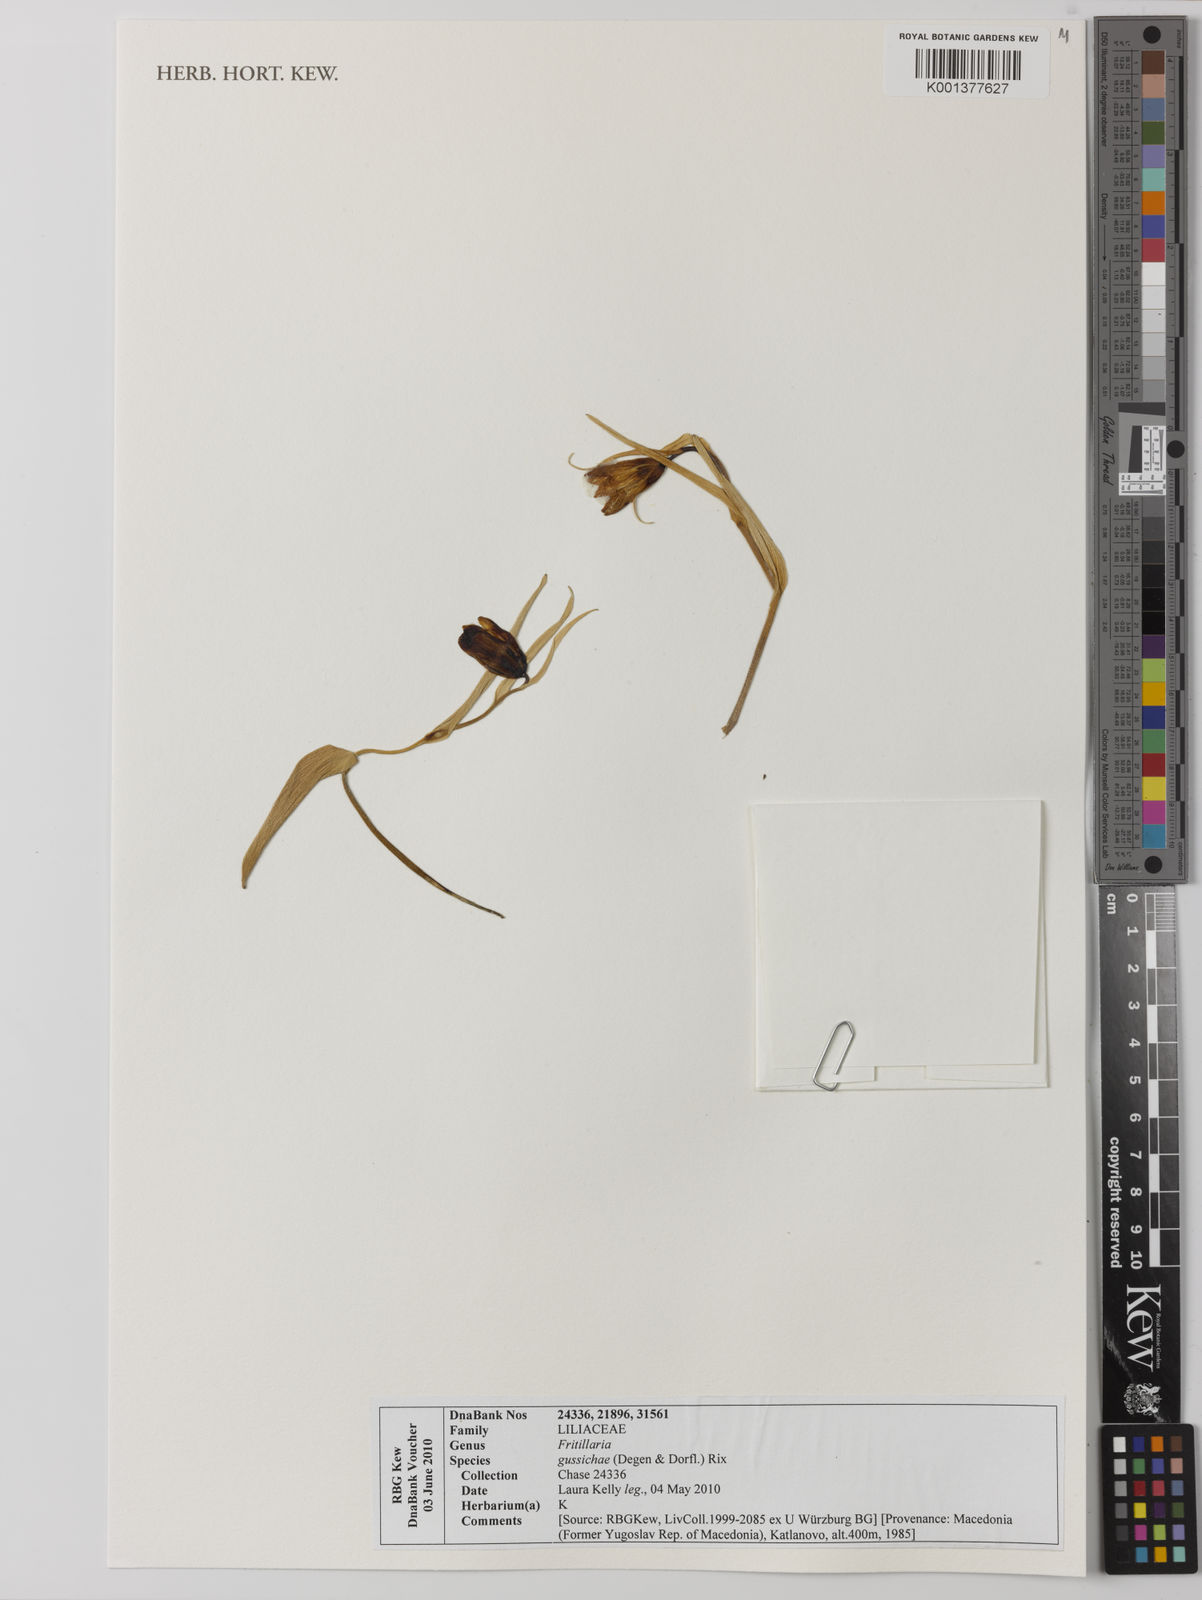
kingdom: Plantae
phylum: Tracheophyta
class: Liliopsida
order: Liliales
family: Liliaceae
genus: Fritillaria
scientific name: Fritillaria gussichiae
